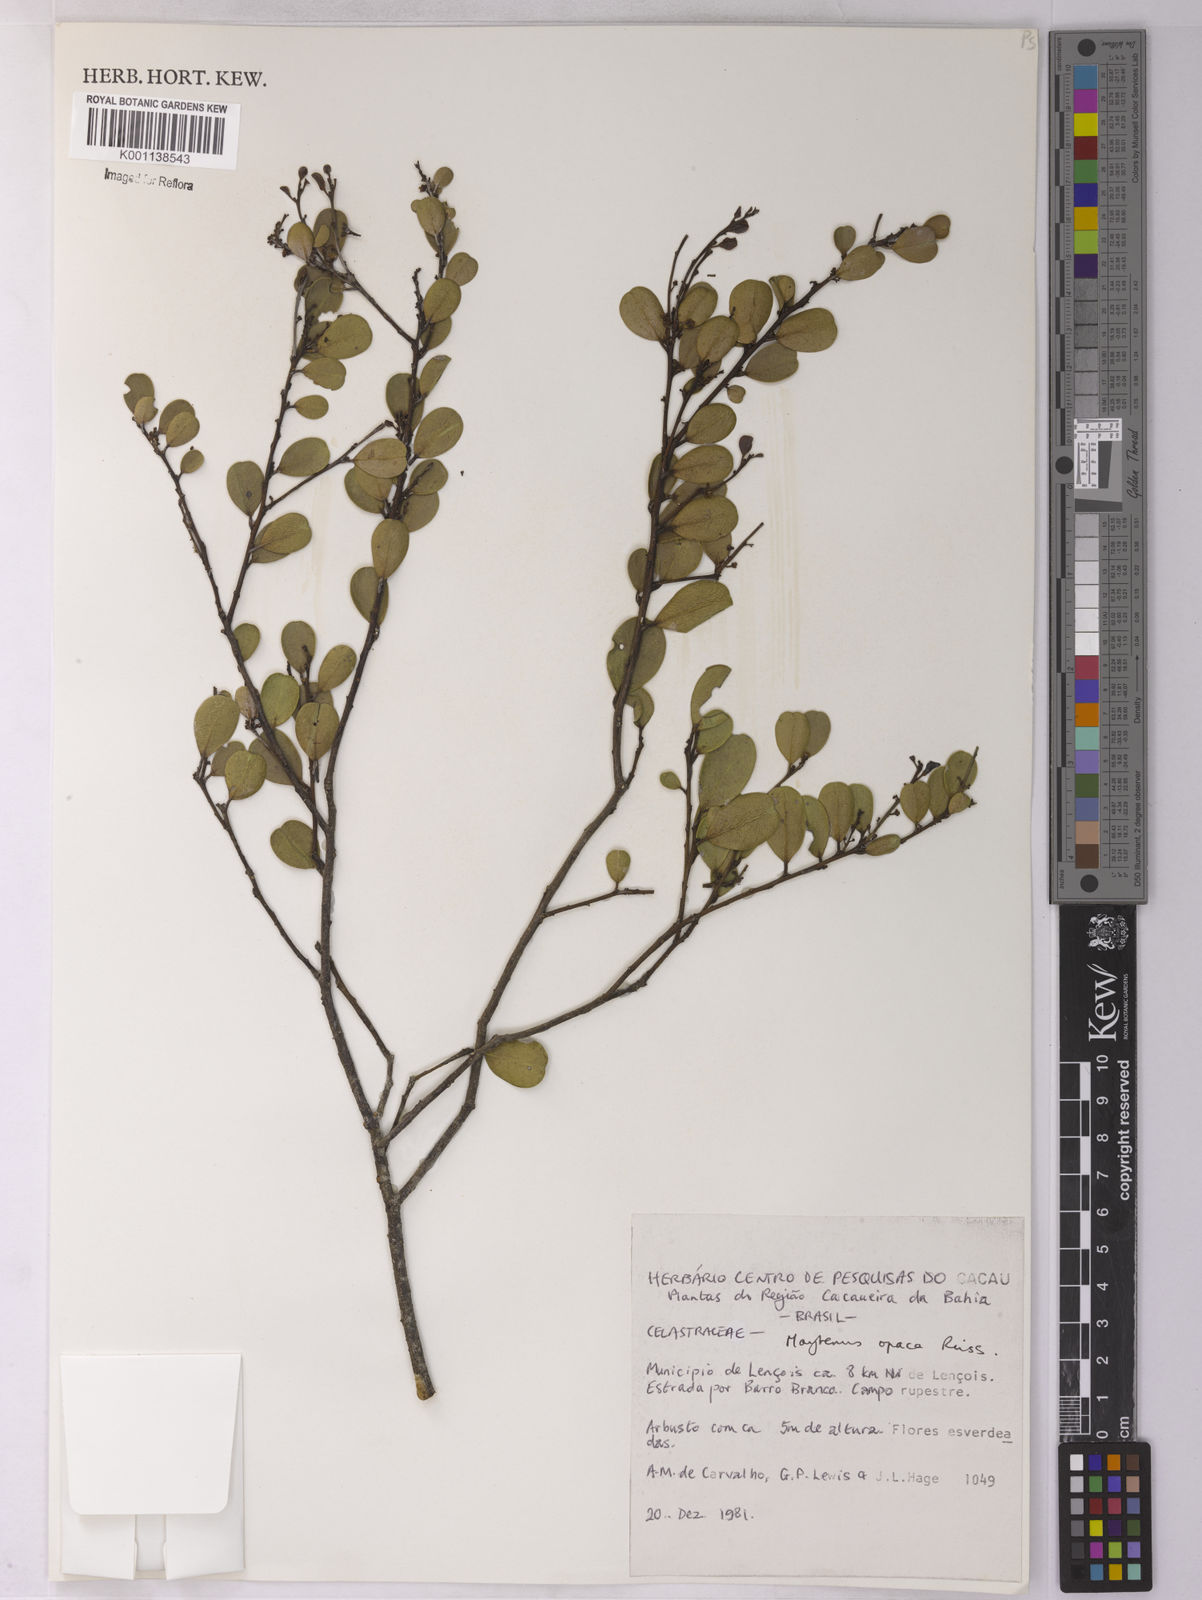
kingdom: Plantae
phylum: Tracheophyta
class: Magnoliopsida
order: Celastrales
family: Celastraceae
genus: Monteverdia
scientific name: Monteverdia opaca
